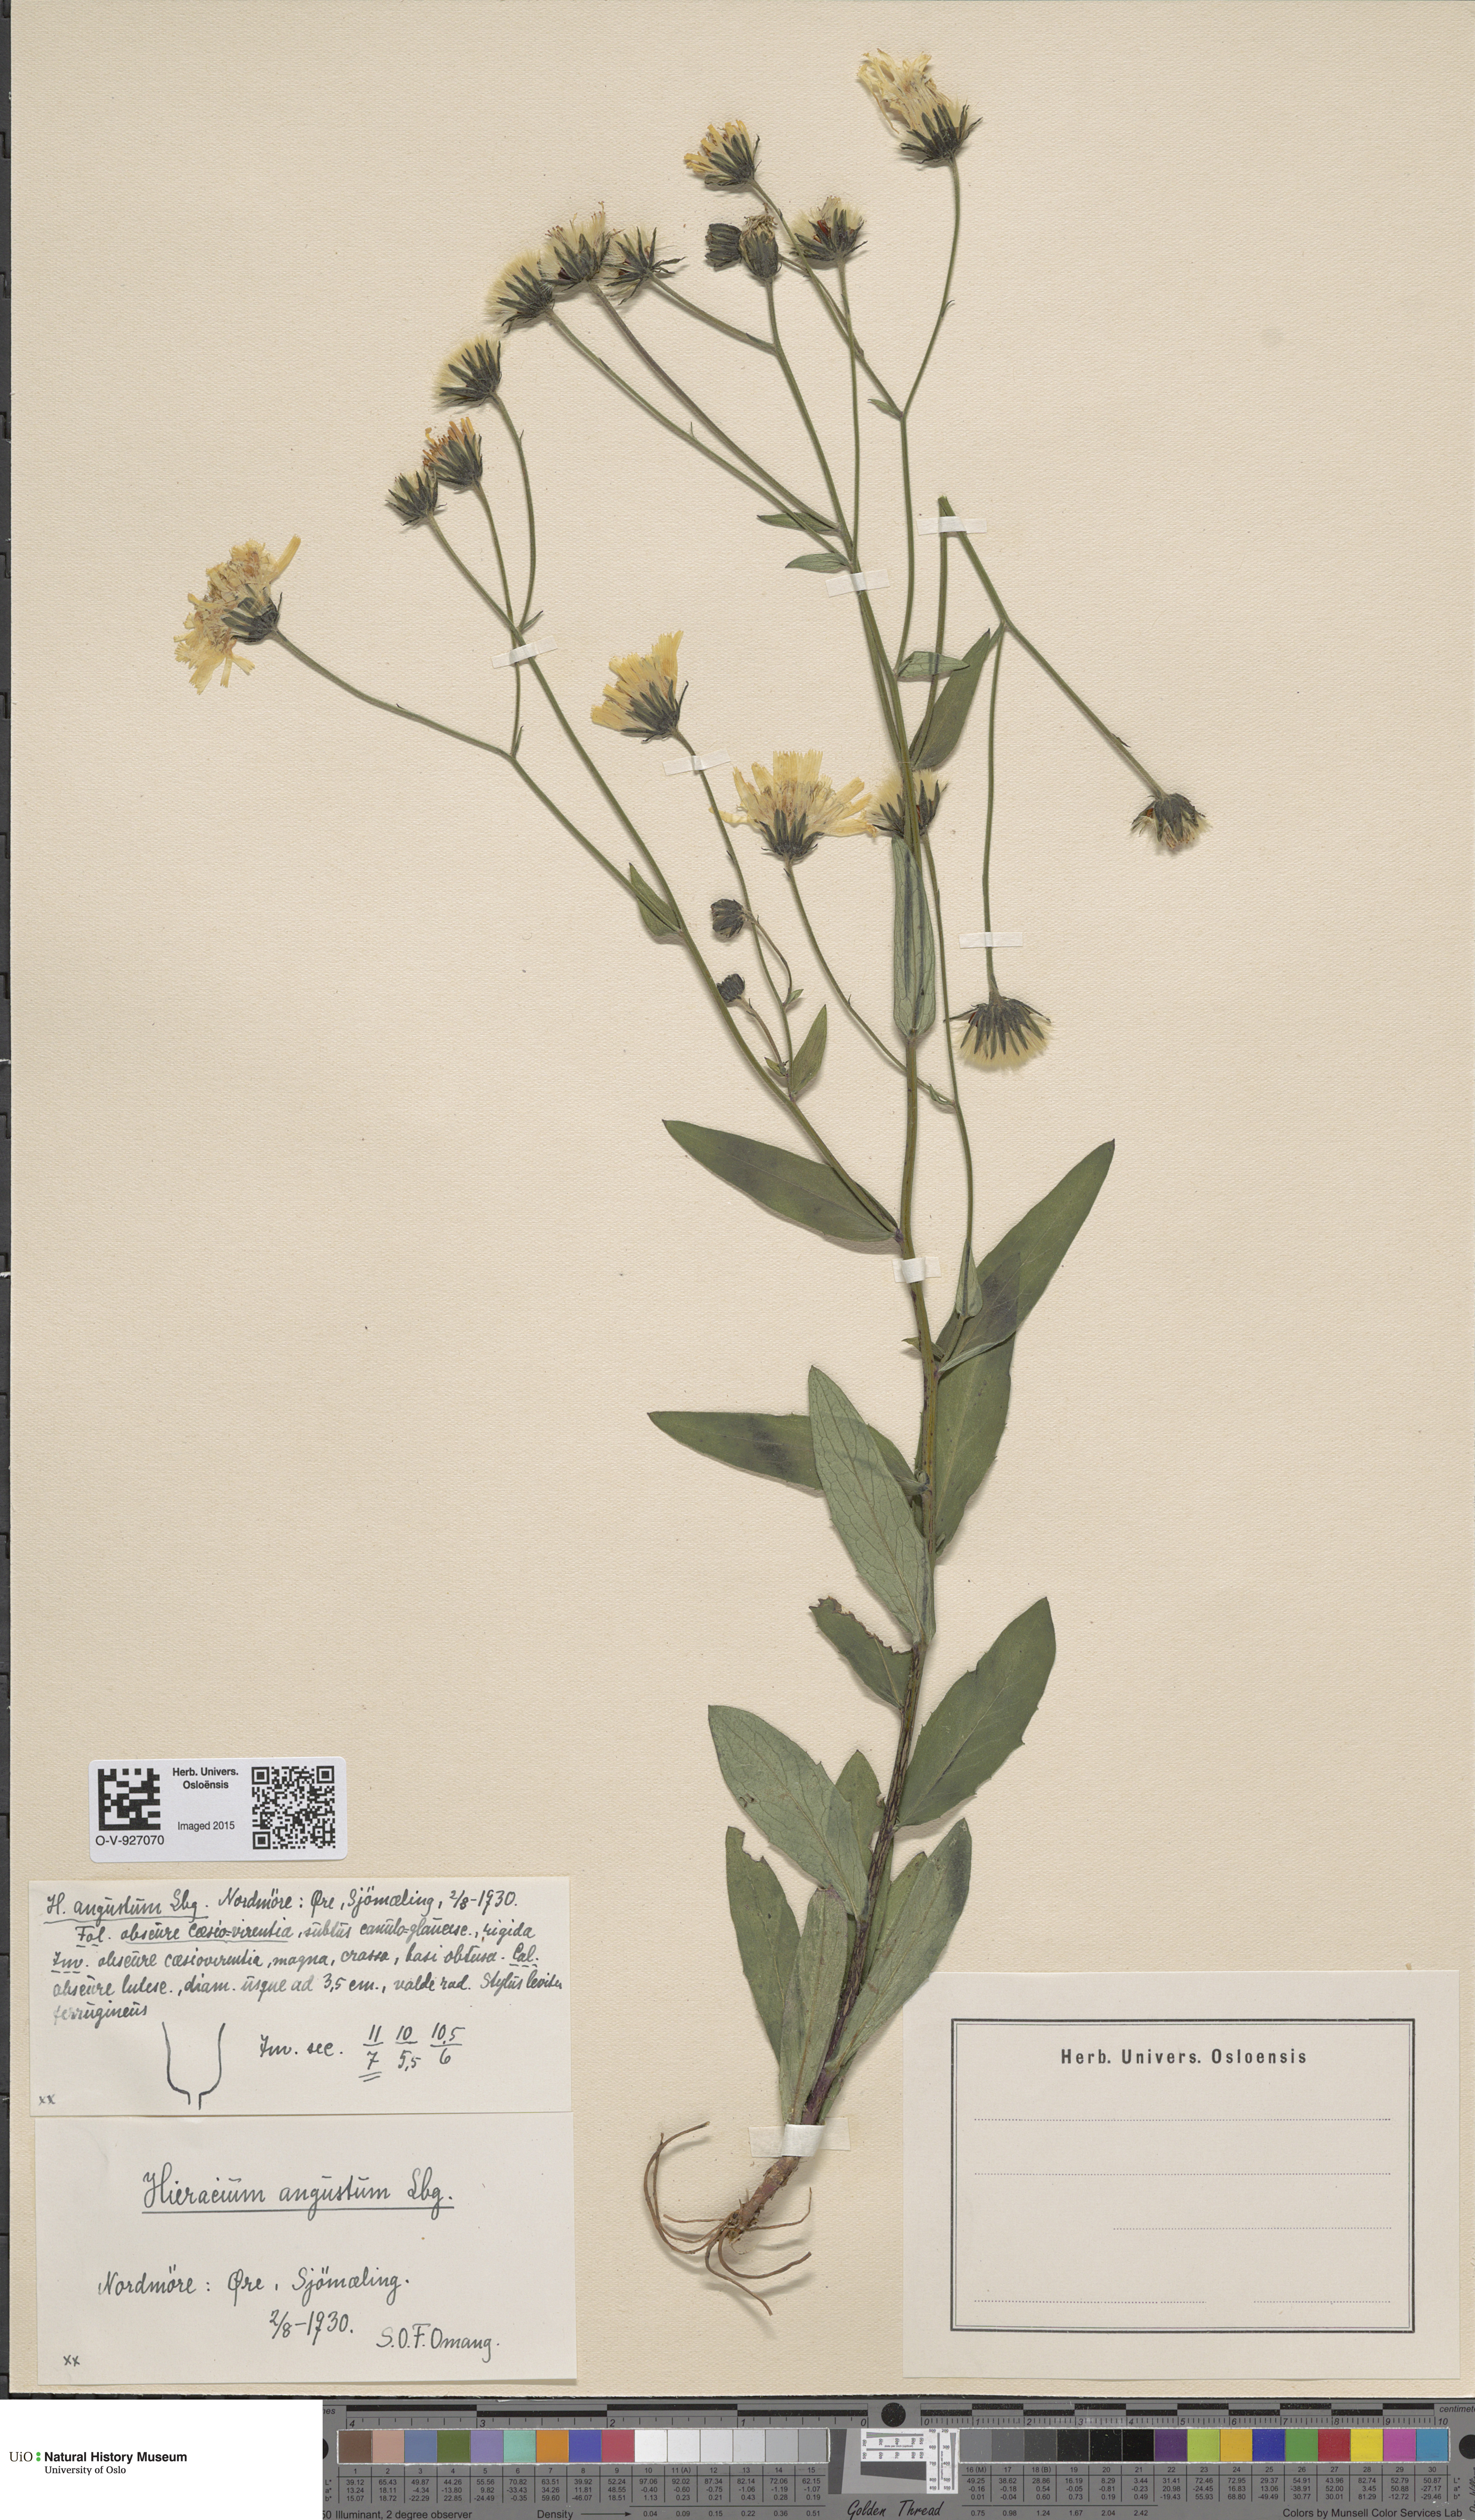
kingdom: Plantae
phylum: Tracheophyta
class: Magnoliopsida
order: Asterales
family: Asteraceae
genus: Hieracium
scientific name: Hieracium angustum
